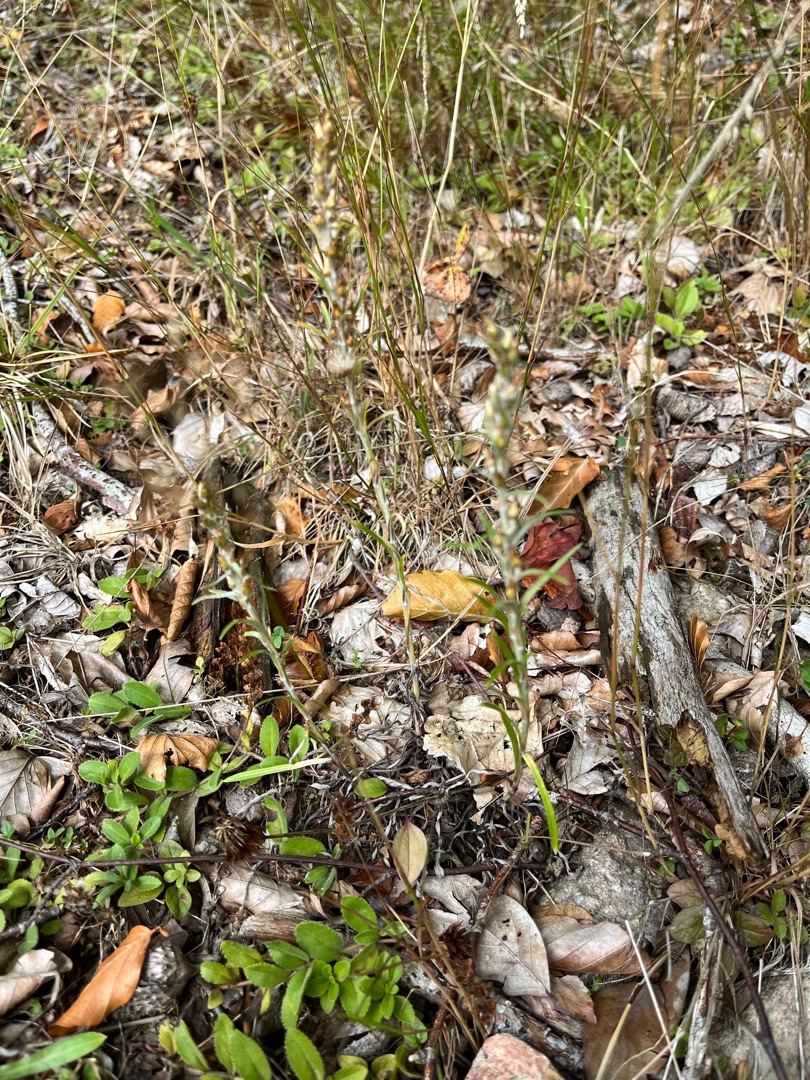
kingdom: Plantae
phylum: Tracheophyta
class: Magnoliopsida
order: Asterales
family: Asteraceae
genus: Omalotheca
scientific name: Omalotheca sylvatica
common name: Rank evighedsblomst
